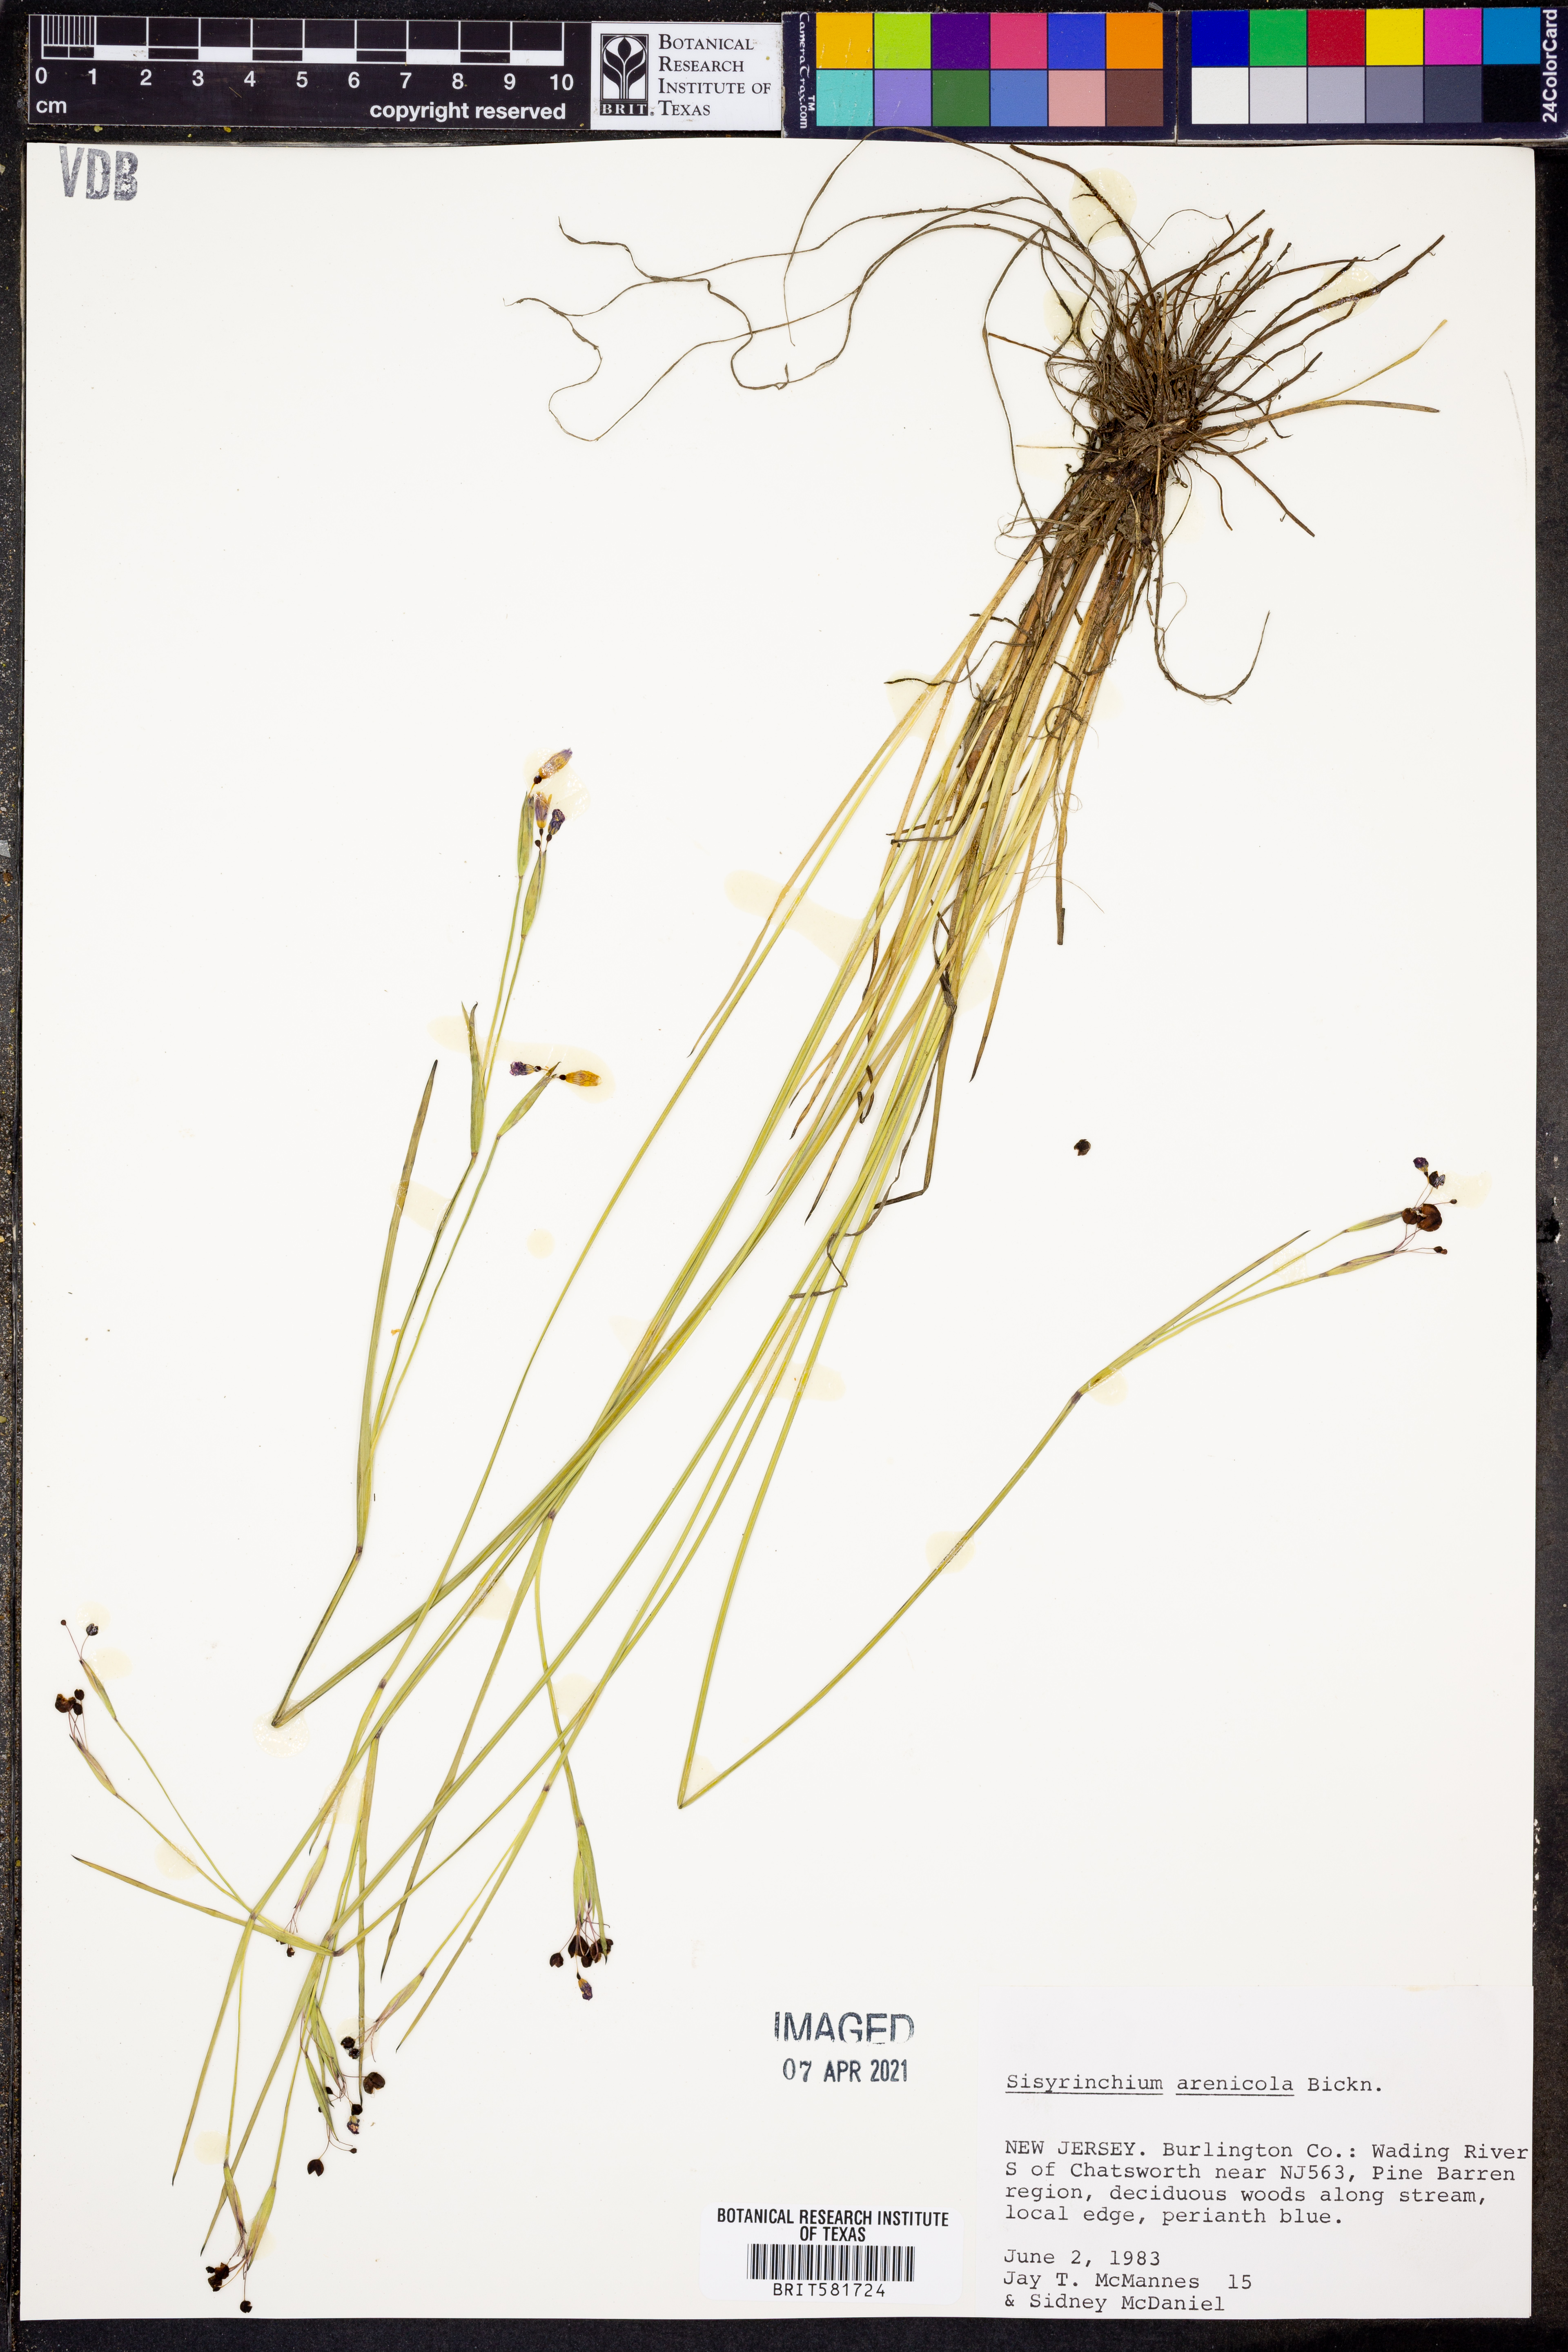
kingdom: Plantae
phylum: Tracheophyta
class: Liliopsida
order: Asparagales
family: Iridaceae
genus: Sisyrinchium
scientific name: Sisyrinchium fuscatum
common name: Coastal plain blue-eyed-grass
